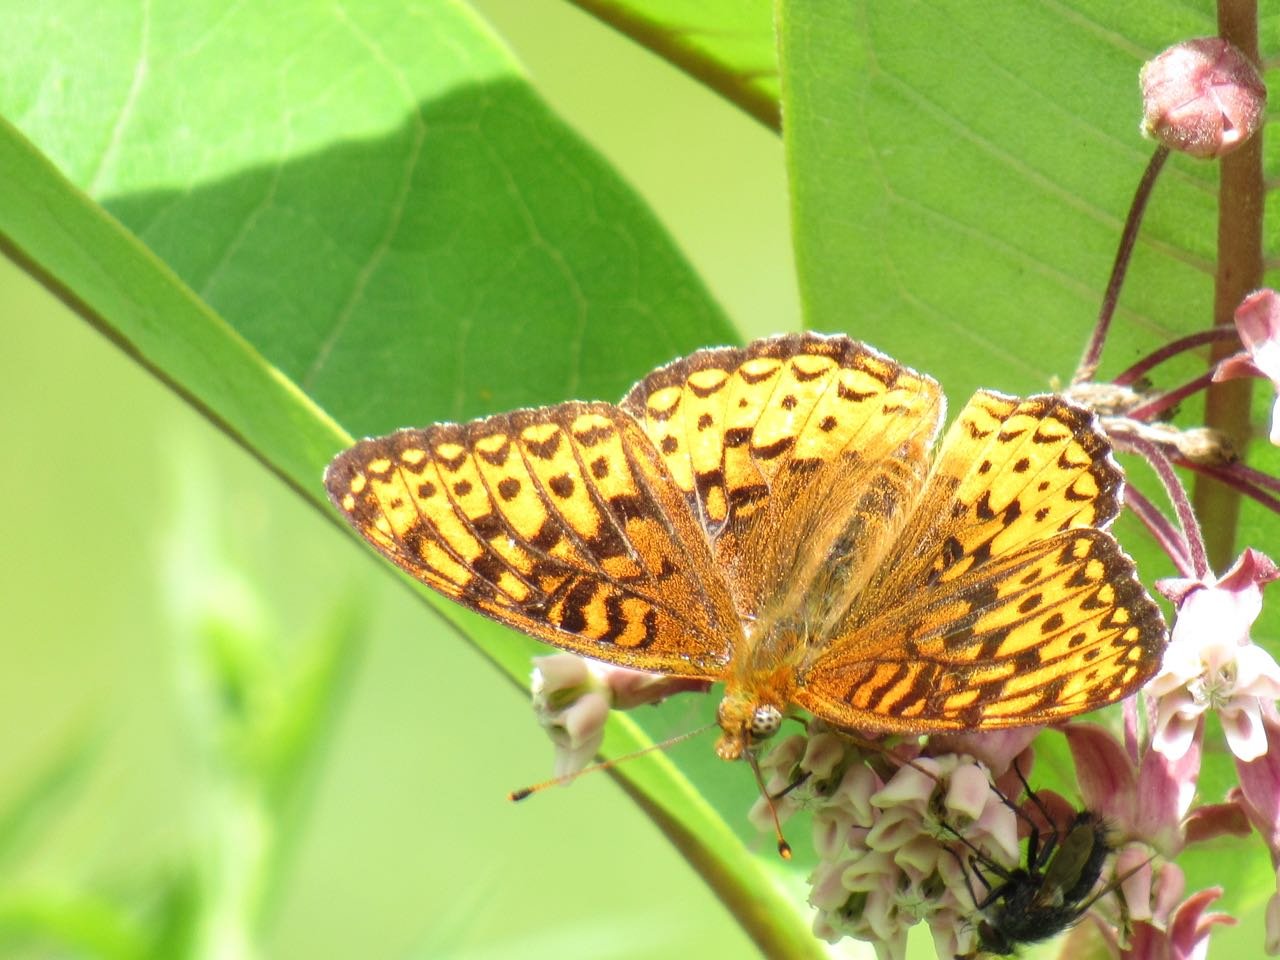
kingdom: Animalia
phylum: Arthropoda
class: Insecta
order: Lepidoptera
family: Nymphalidae
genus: Speyeria
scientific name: Speyeria atlantis
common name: Atlantis Fritillary
